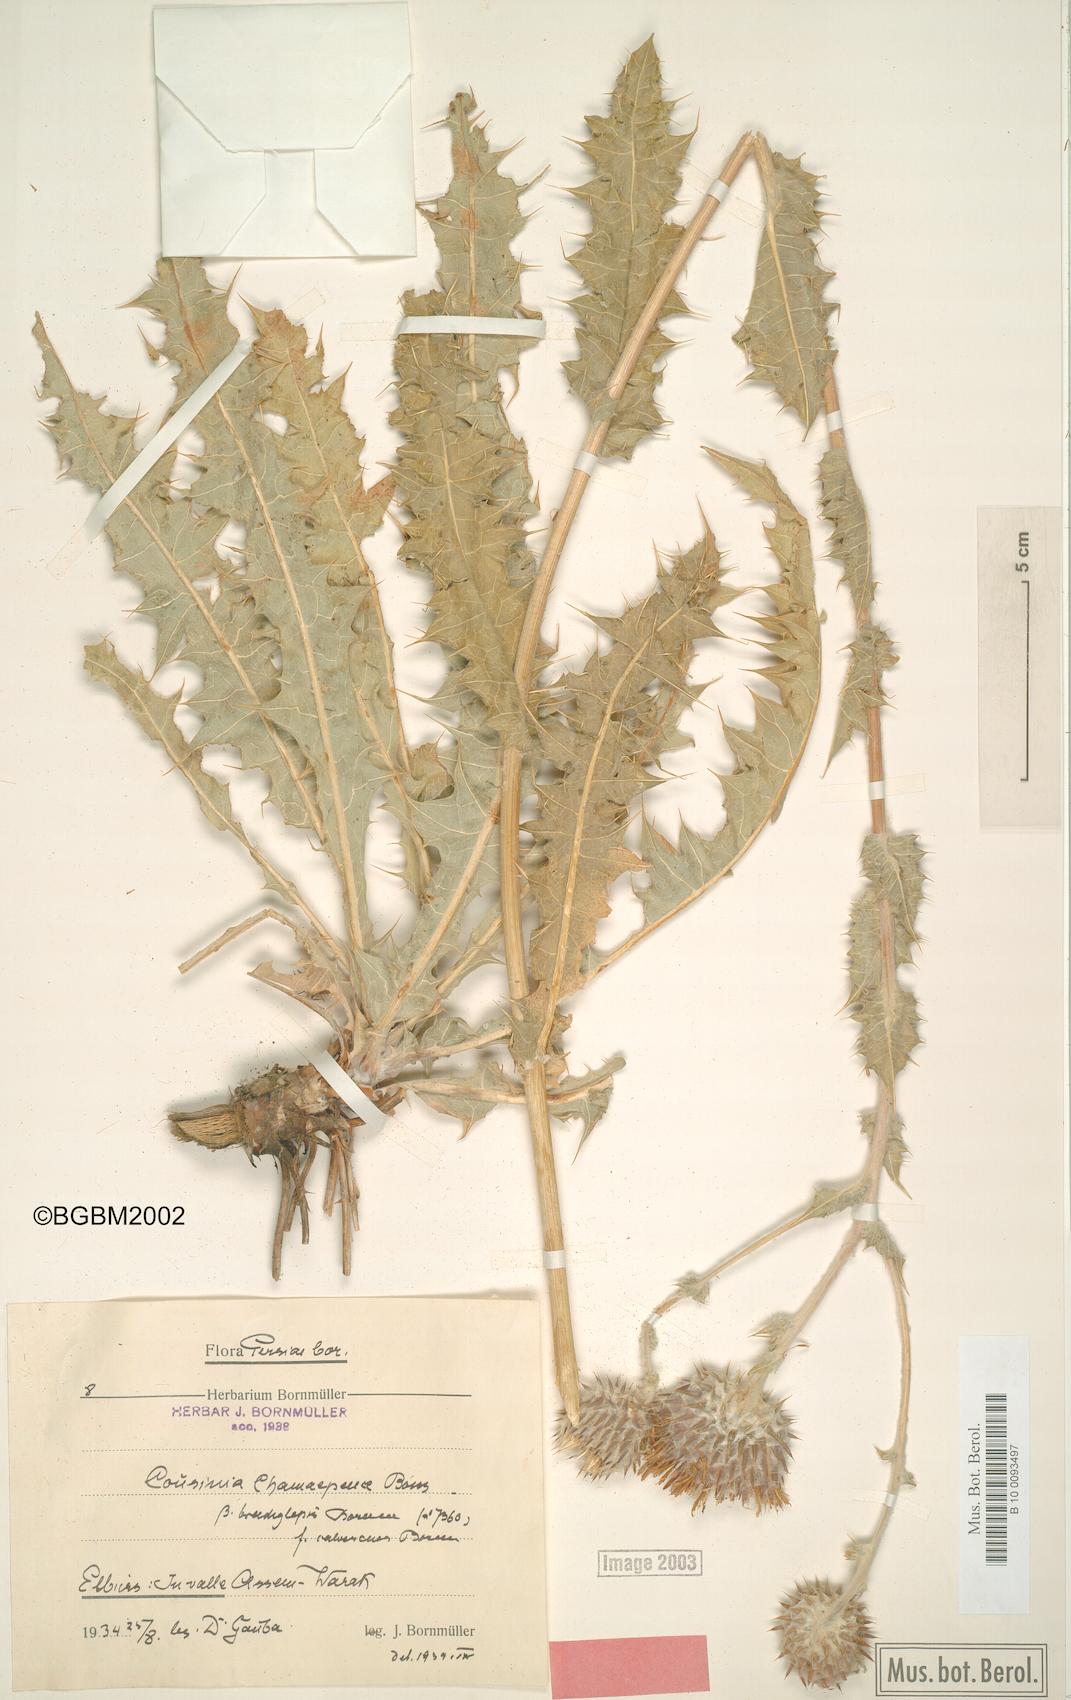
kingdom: Plantae
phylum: Tracheophyta
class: Magnoliopsida
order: Asterales
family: Asteraceae
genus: Cousinia
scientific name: Cousinia sphaerocephala
